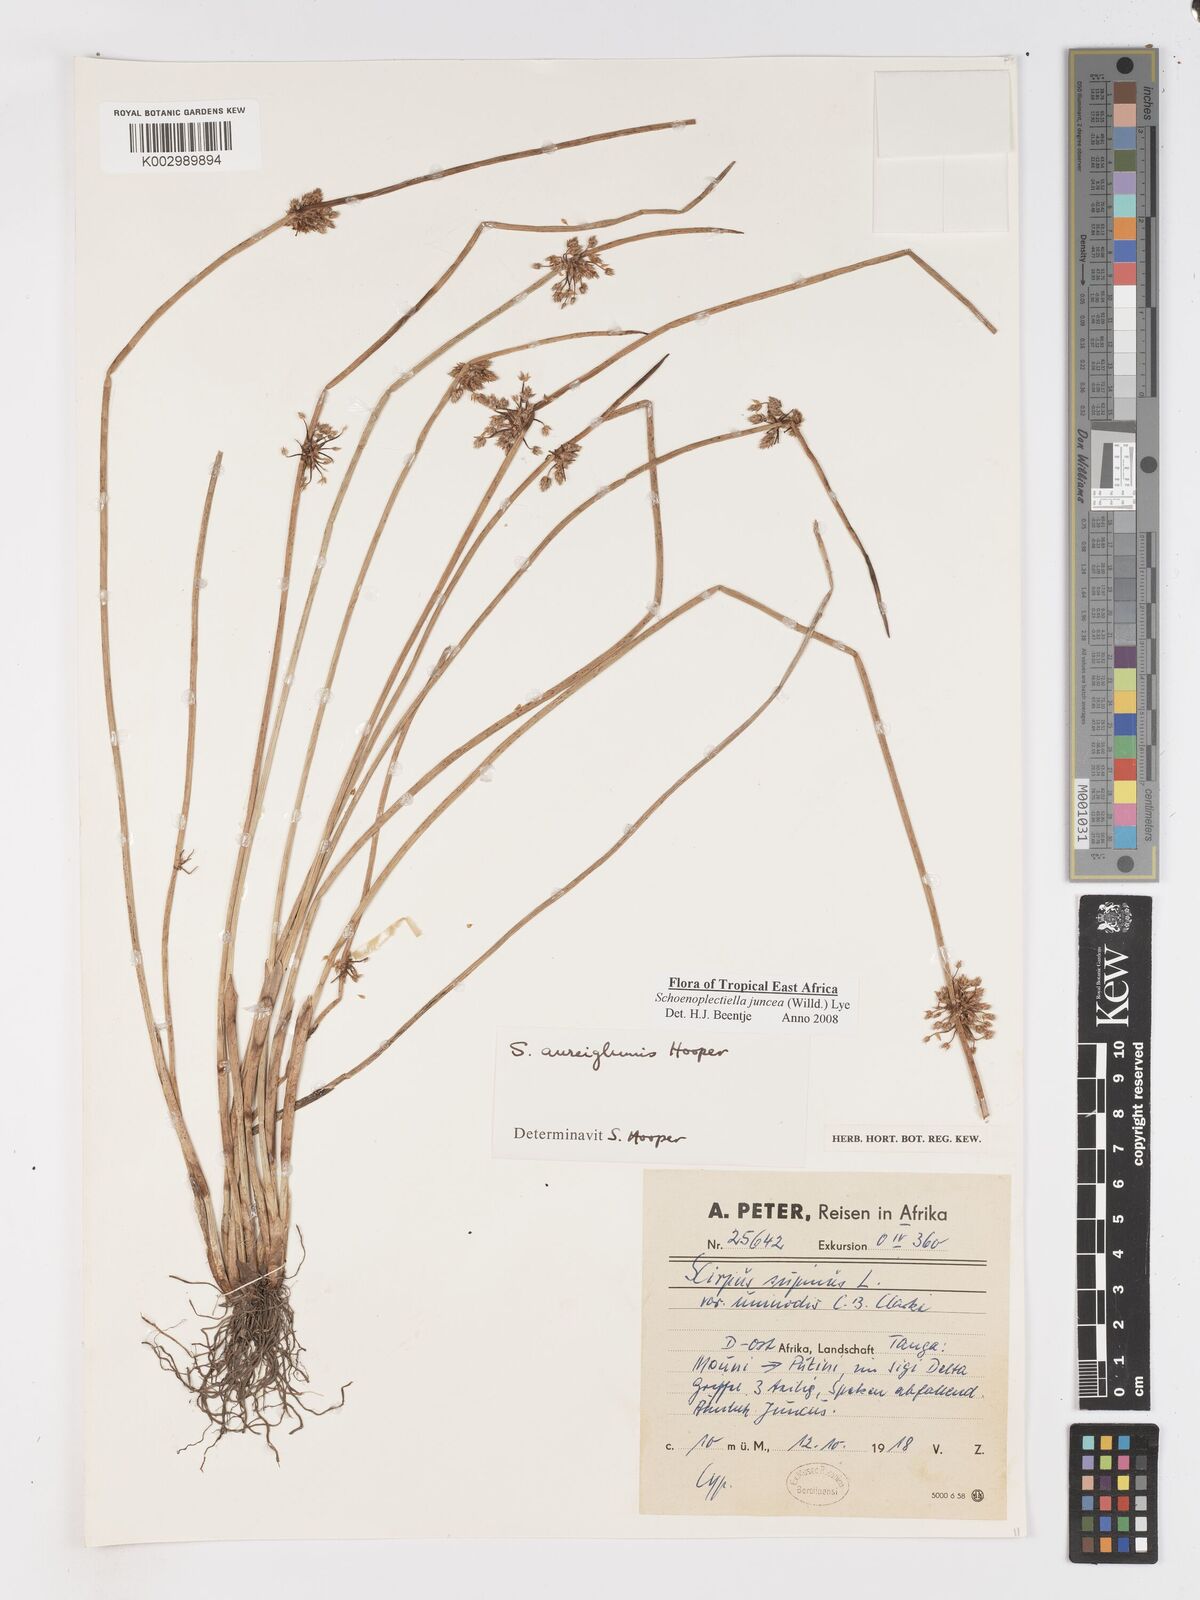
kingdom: Plantae
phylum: Tracheophyta
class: Liliopsida
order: Poales
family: Cyperaceae
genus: Schoenoplectiella
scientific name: Schoenoplectiella juncea
